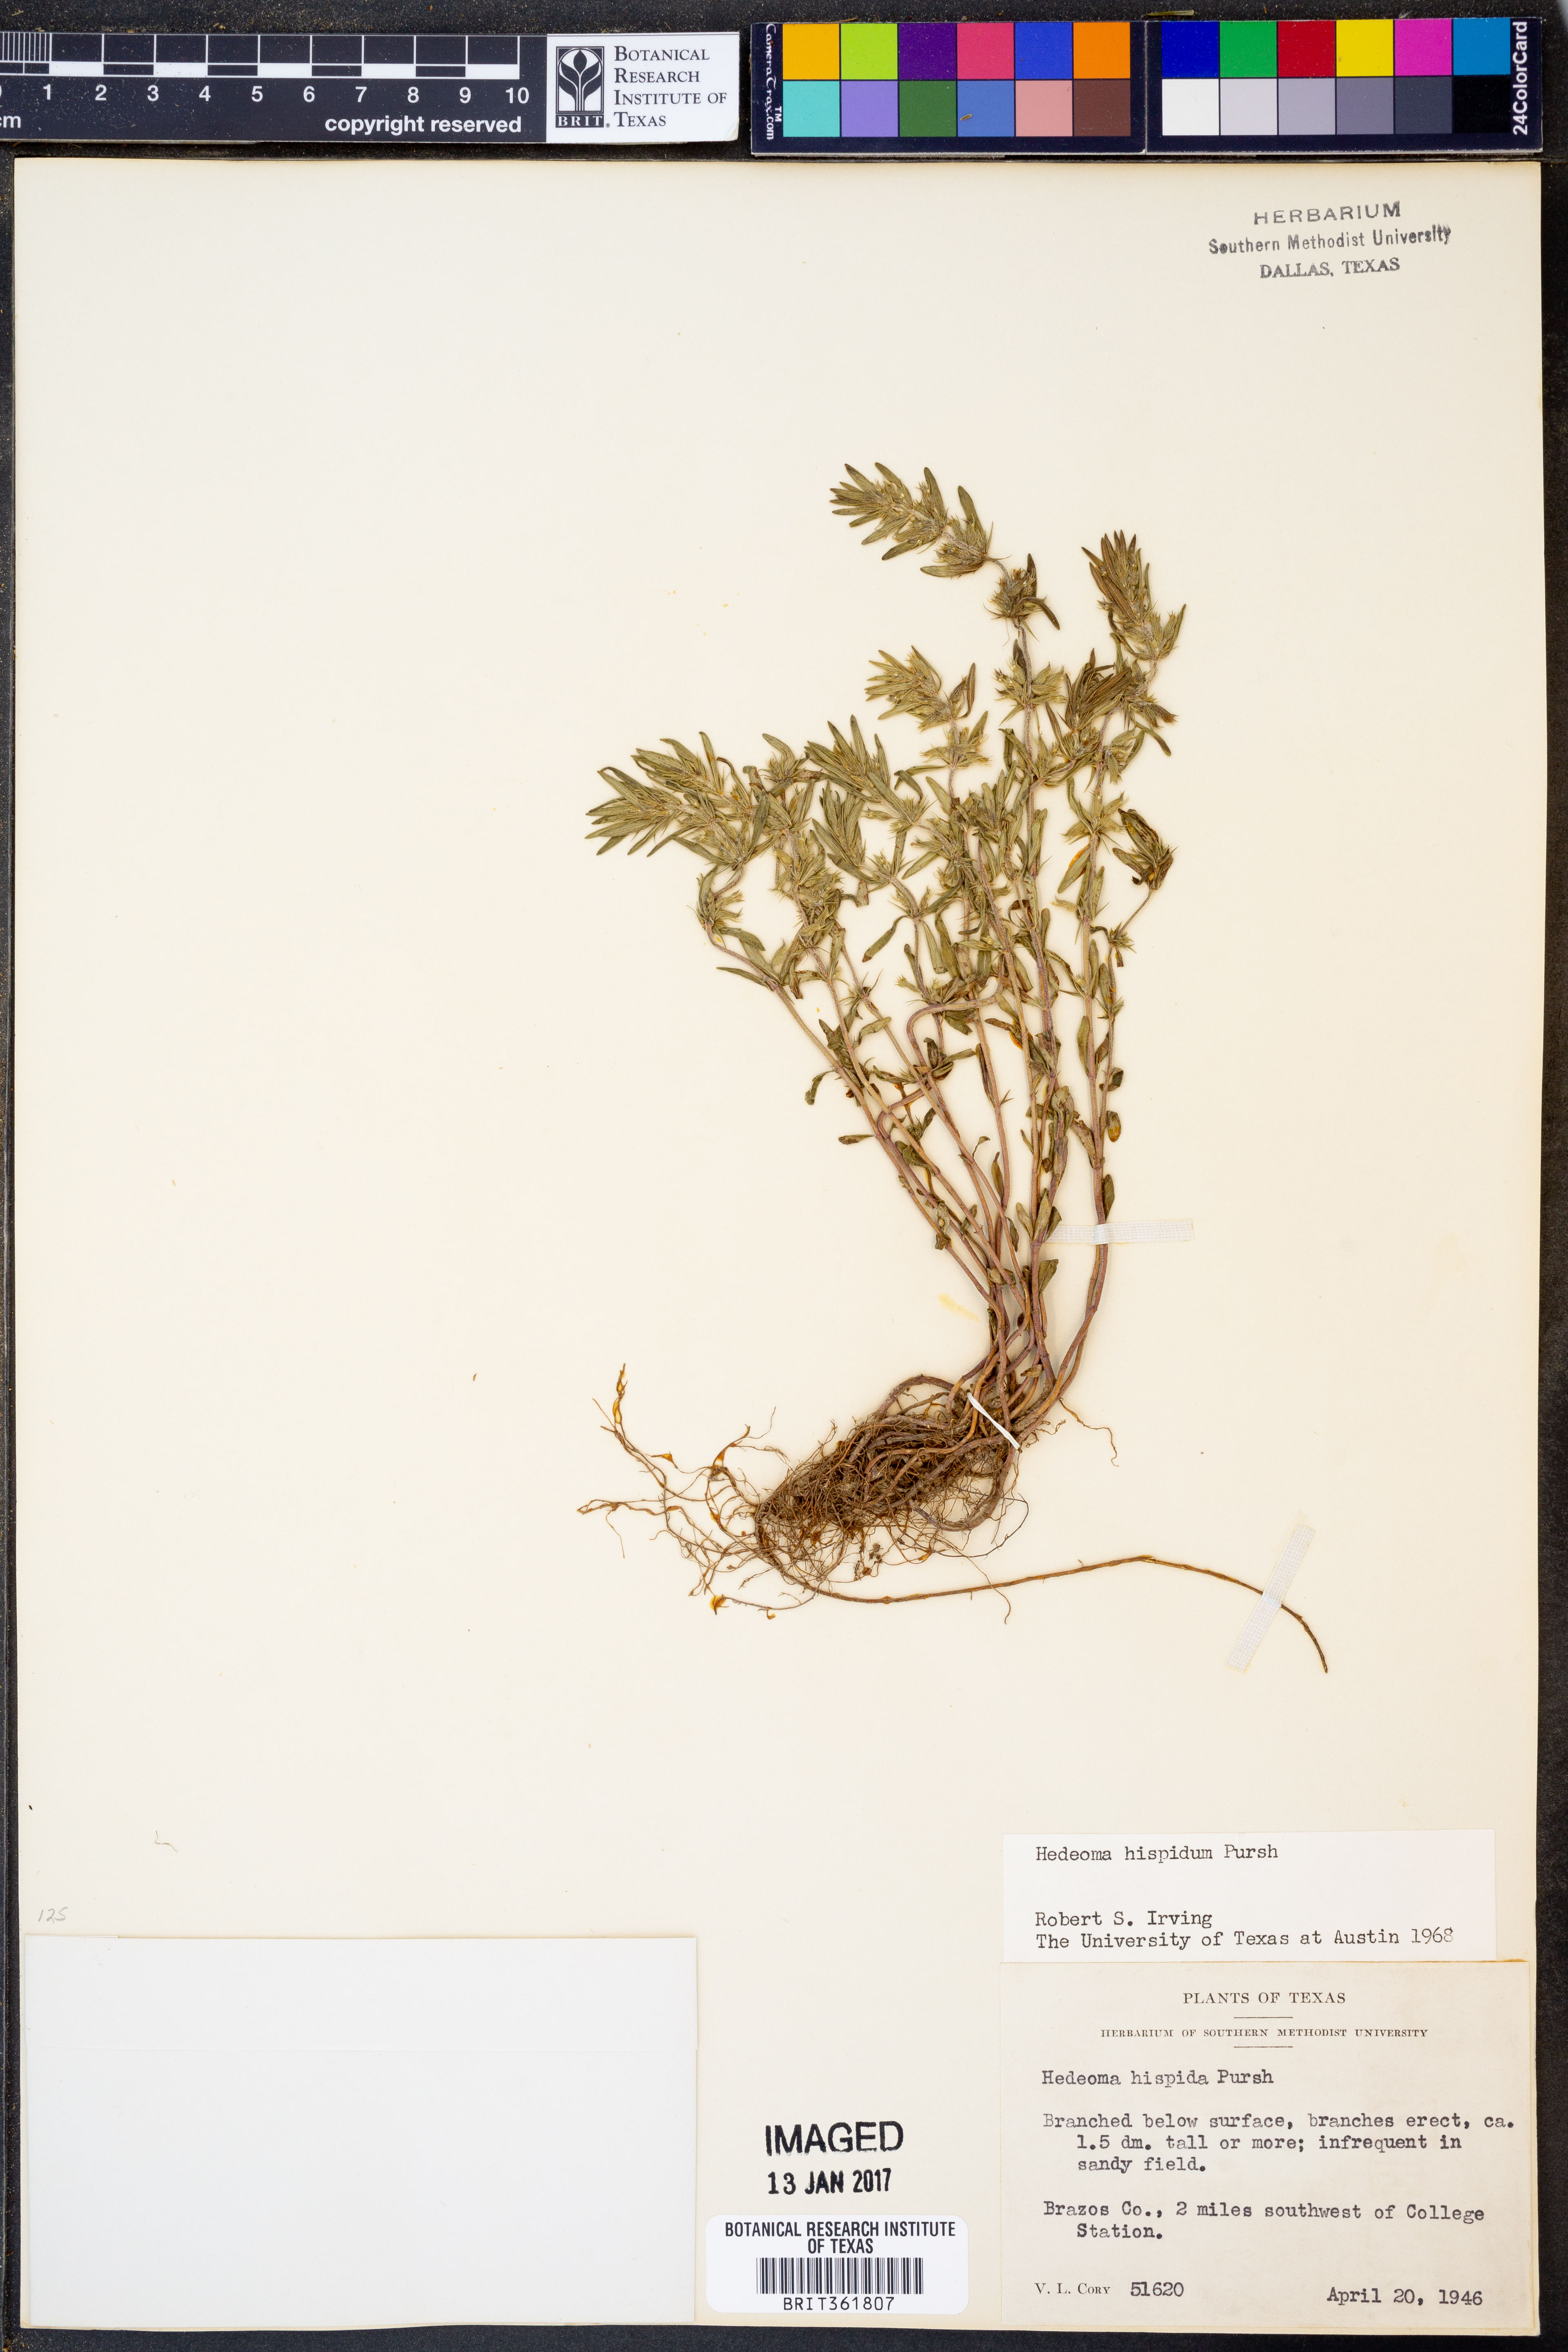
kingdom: Plantae
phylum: Tracheophyta
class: Magnoliopsida
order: Lamiales
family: Lamiaceae
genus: Hedeoma
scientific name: Hedeoma hispida
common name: Mock pennyroyal
